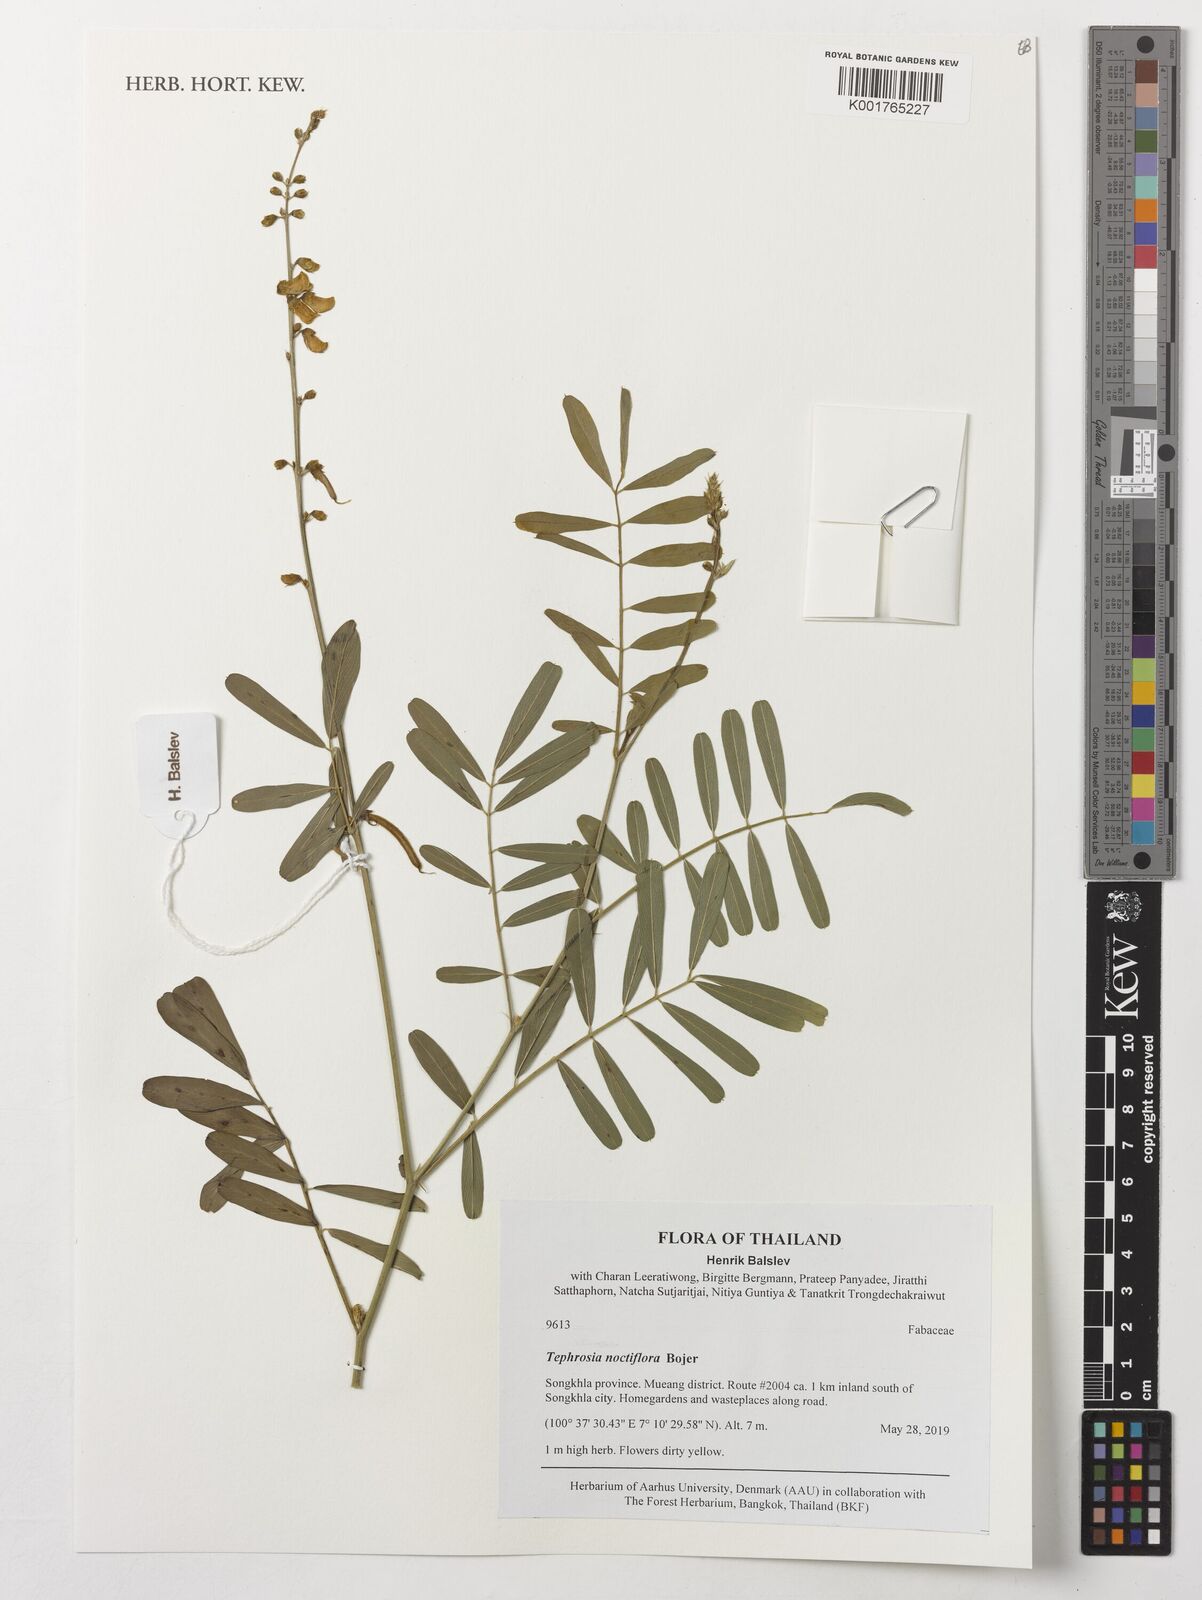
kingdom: Plantae
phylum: Tracheophyta
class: Magnoliopsida
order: Fabales
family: Fabaceae
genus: Tephrosia
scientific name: Tephrosia noctiflora
